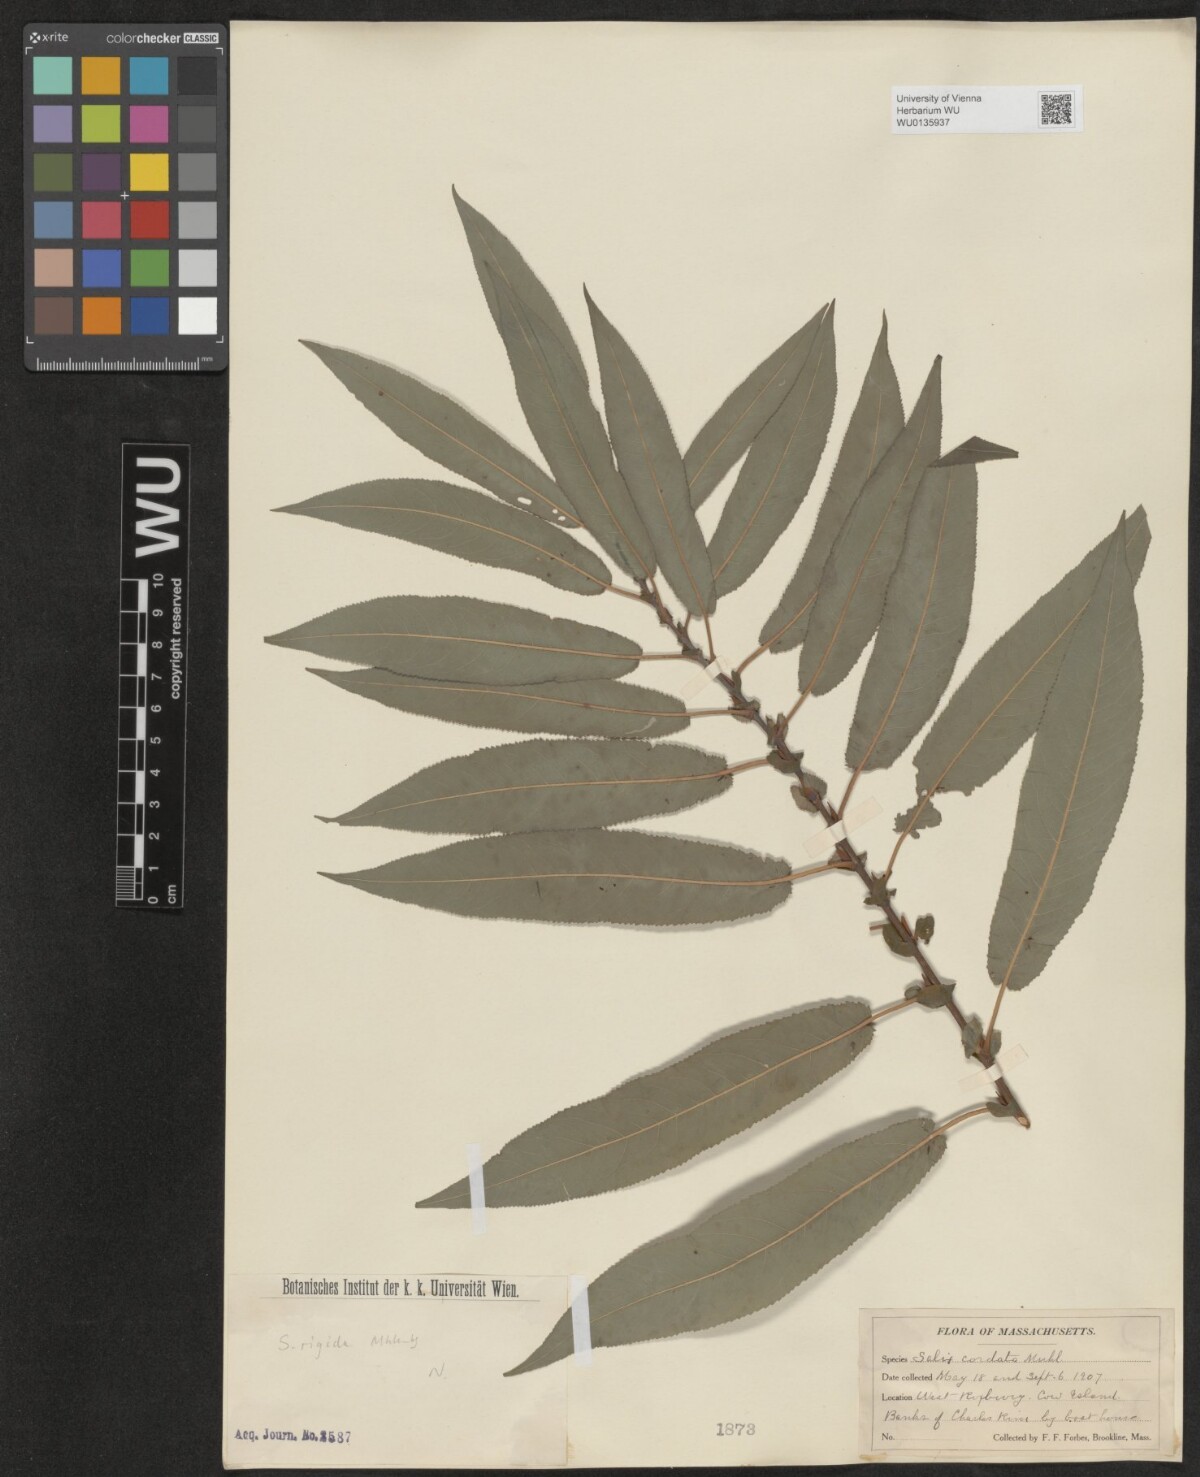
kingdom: Plantae
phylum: Tracheophyta
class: Magnoliopsida
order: Malpighiales
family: Salicaceae
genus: Salix
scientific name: Salix cordata
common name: Heart-leaf willow
